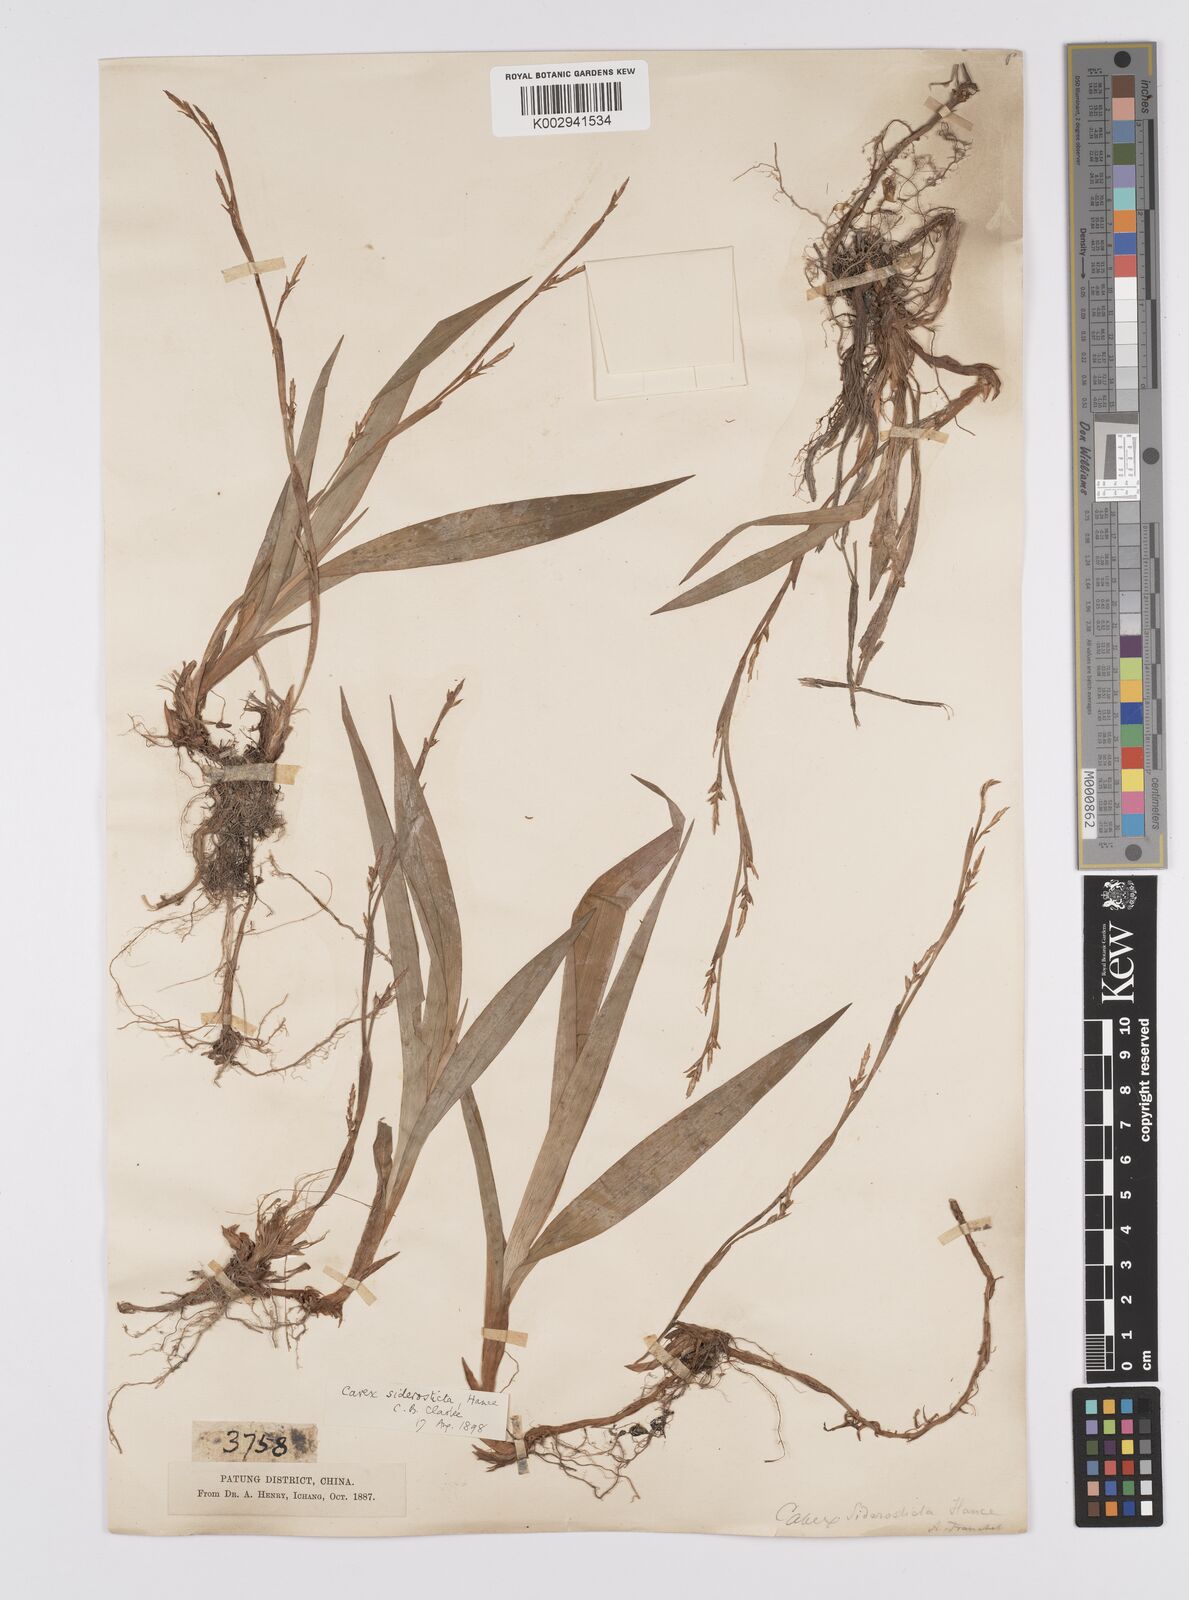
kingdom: Plantae
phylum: Tracheophyta
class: Liliopsida
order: Poales
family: Cyperaceae
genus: Carex
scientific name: Carex siderosticta
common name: Broadleaf sedge
